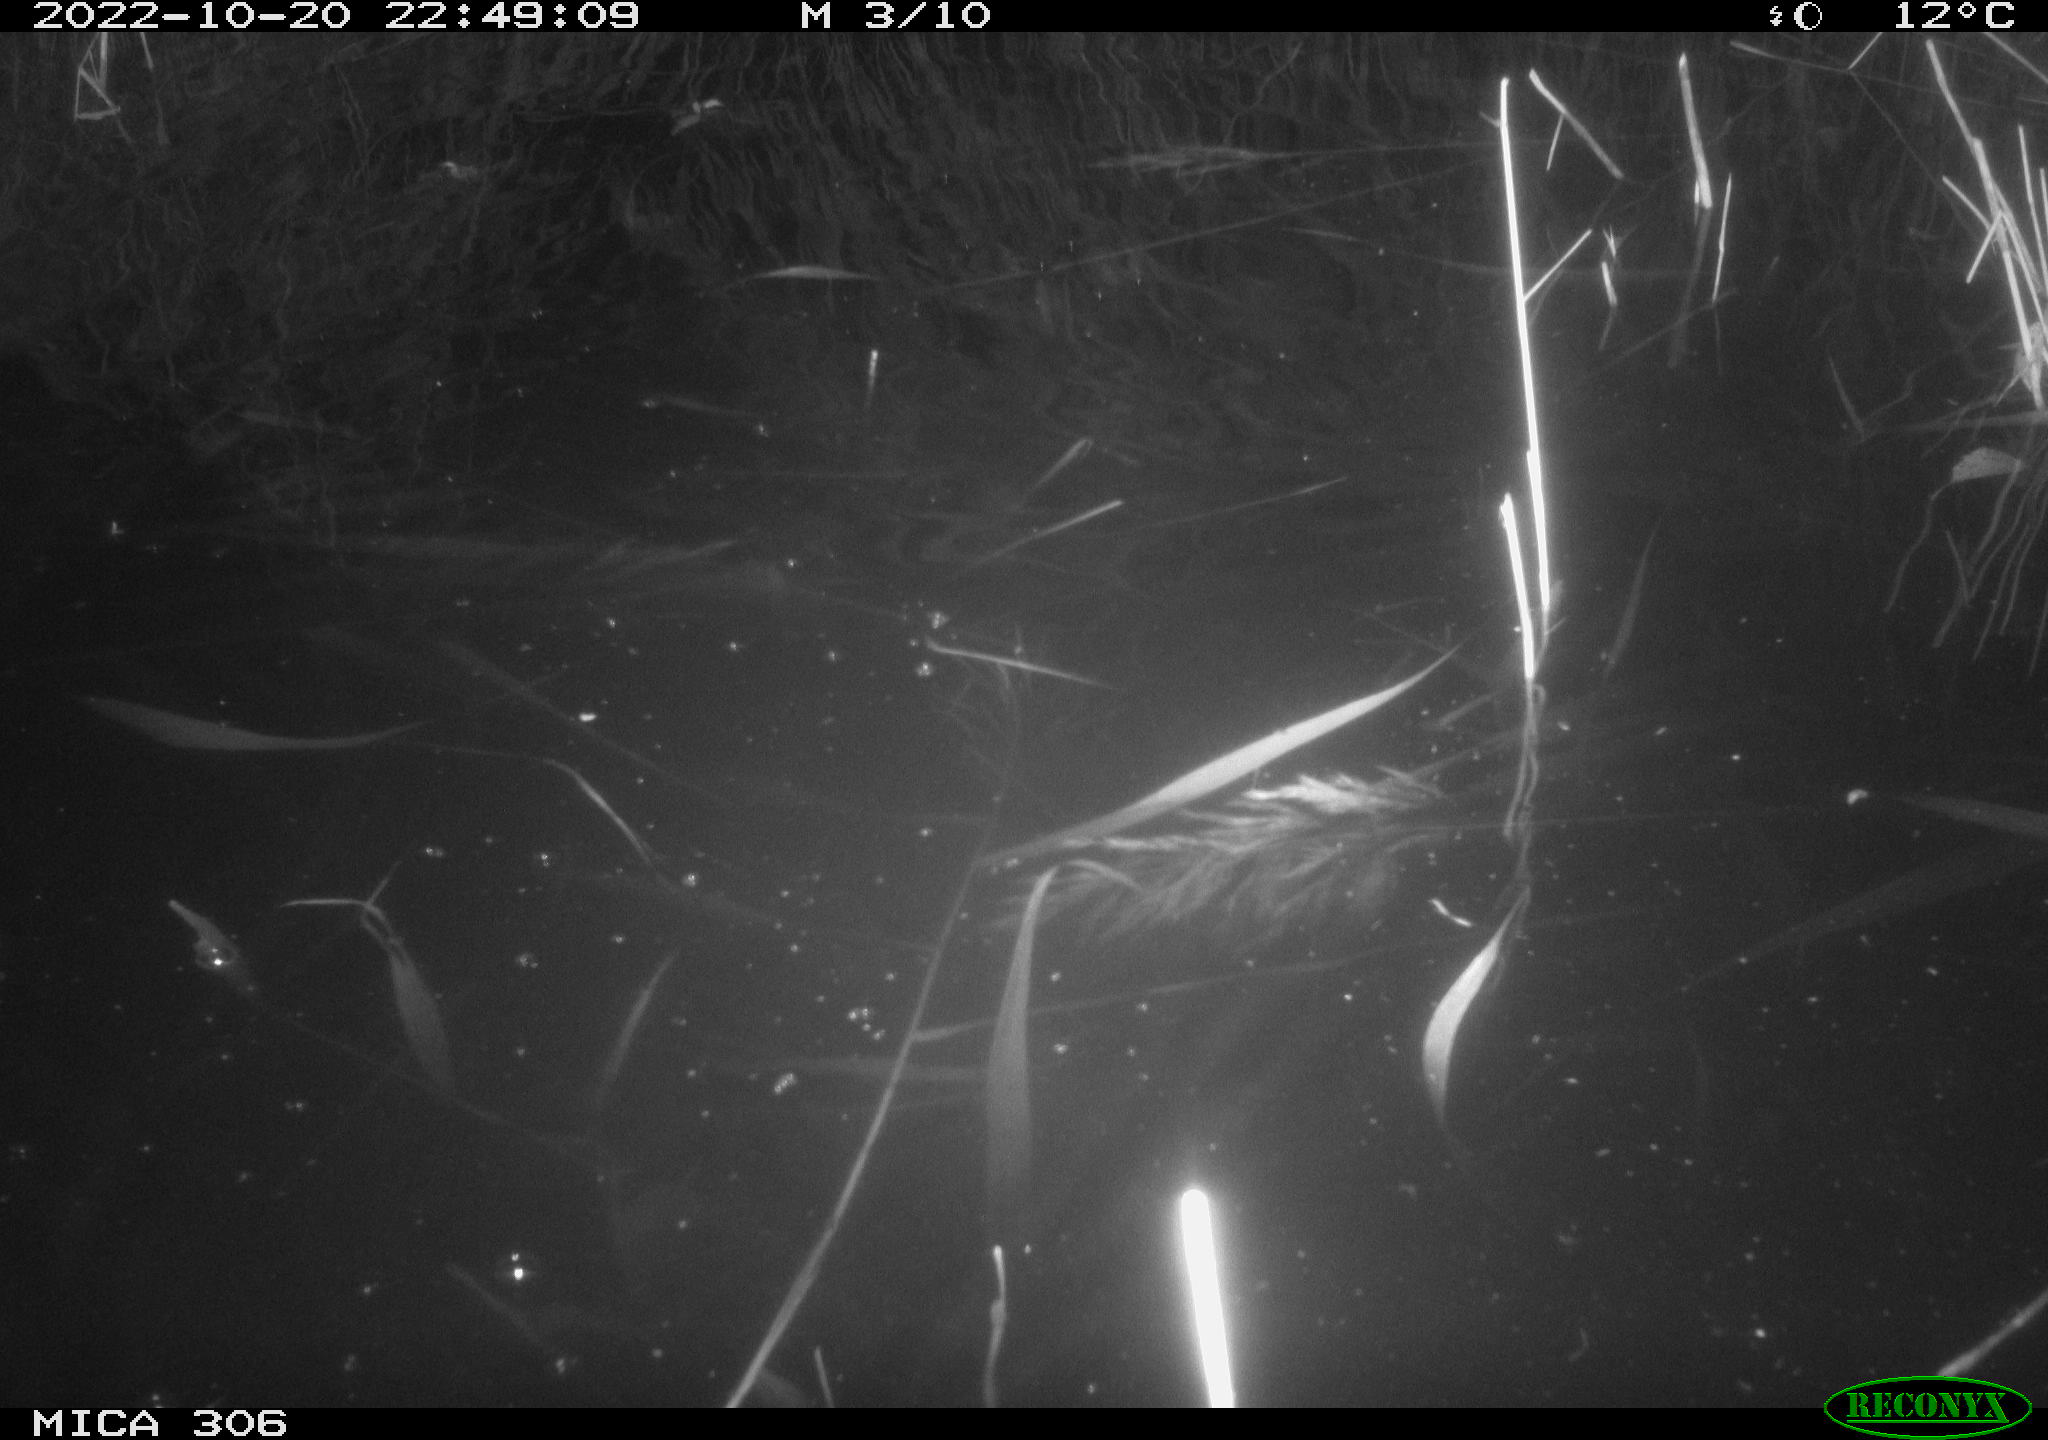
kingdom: Animalia
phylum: Chordata
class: Mammalia
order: Rodentia
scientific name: Rodentia
